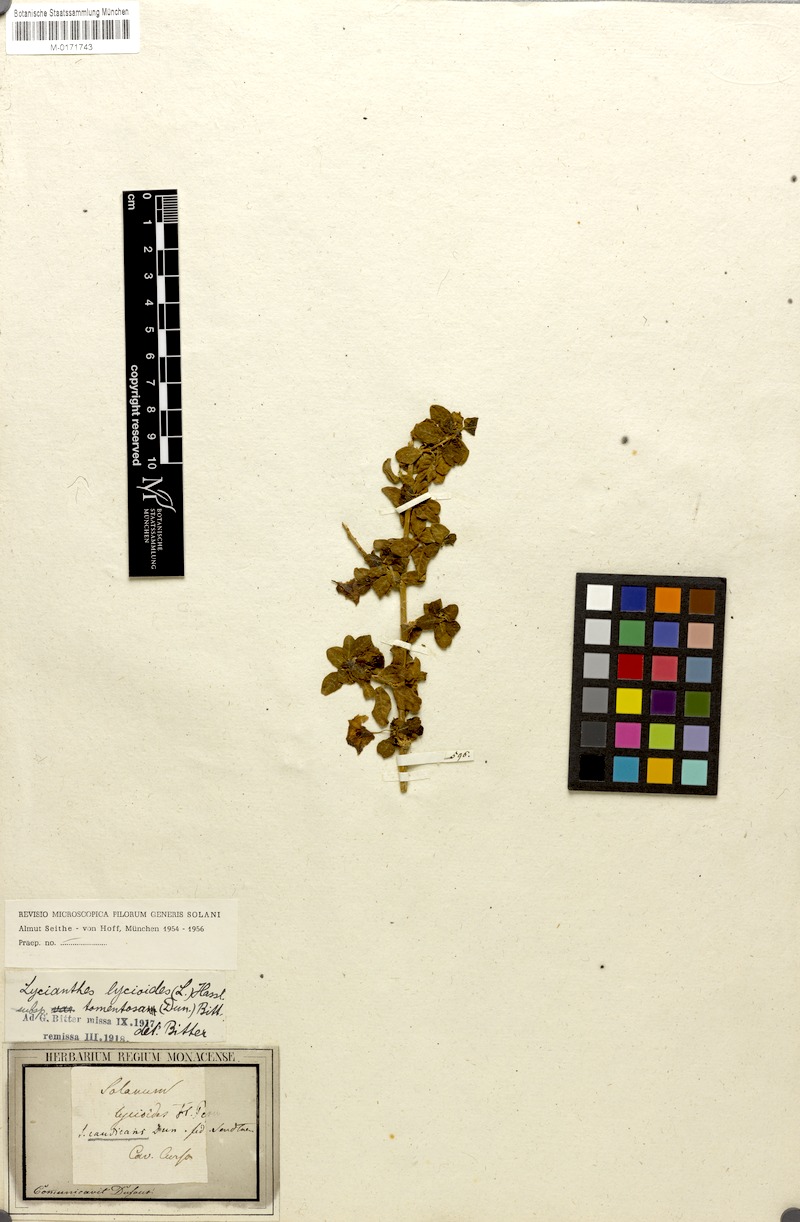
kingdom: Plantae
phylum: Tracheophyta
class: Magnoliopsida
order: Solanales
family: Solanaceae
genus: Lycianthes
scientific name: Lycianthes lycioides
